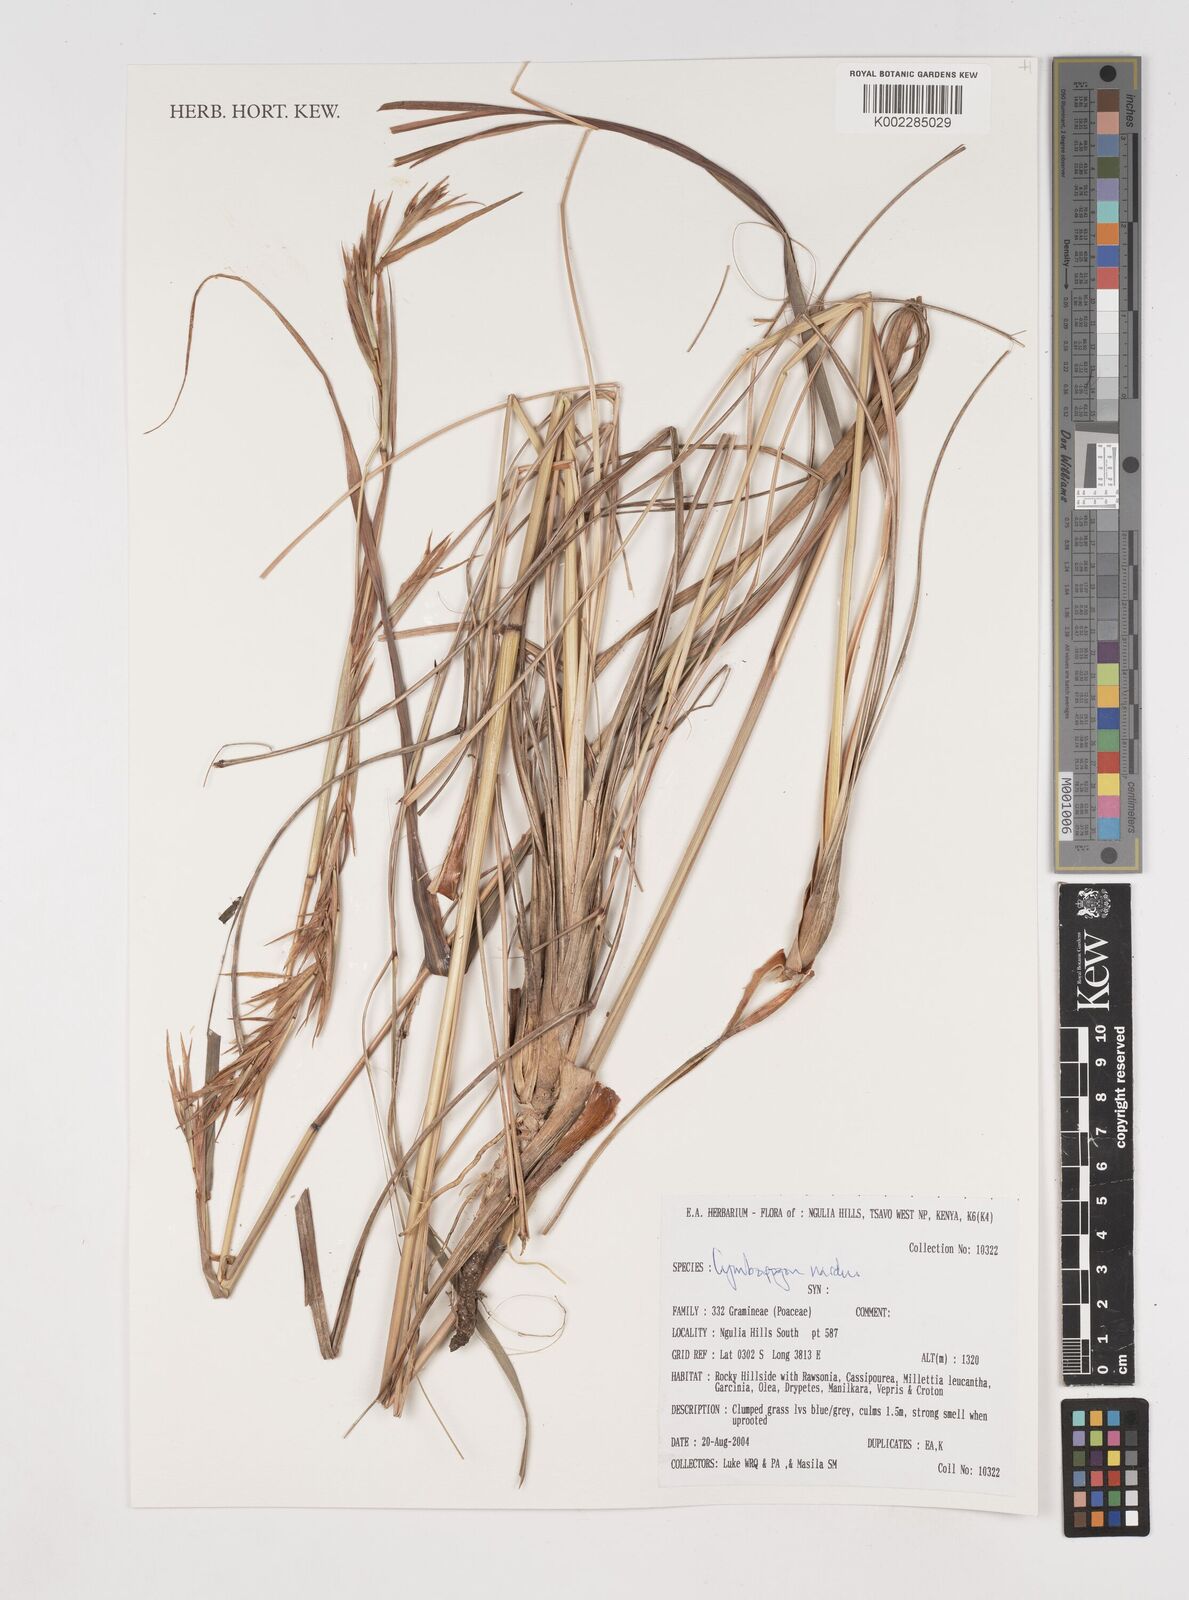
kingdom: Plantae
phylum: Tracheophyta
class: Liliopsida
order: Poales
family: Poaceae
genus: Cymbopogon
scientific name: Cymbopogon
